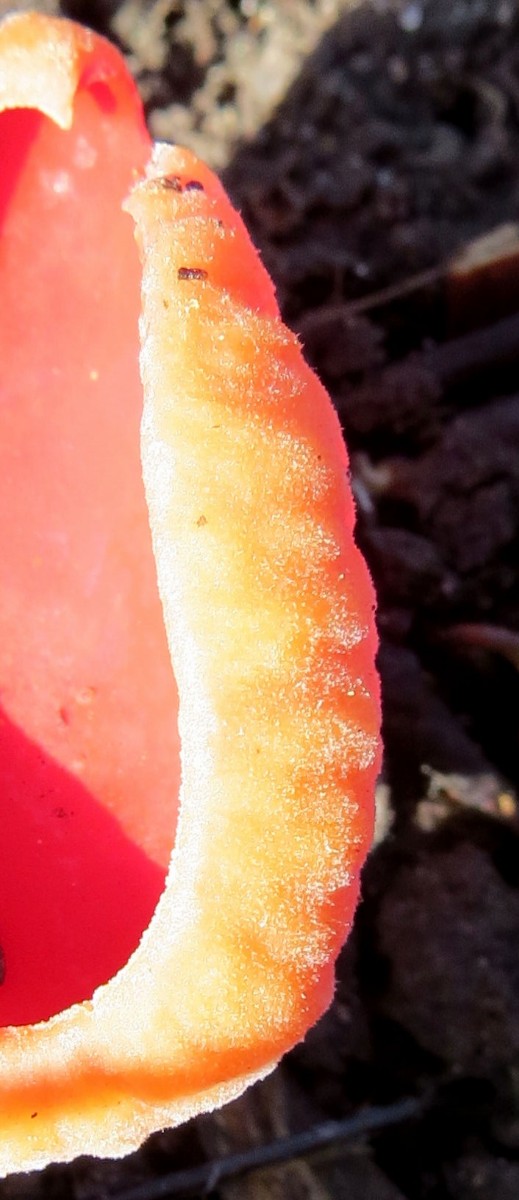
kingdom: Fungi
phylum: Ascomycota
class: Pezizomycetes
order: Pezizales
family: Sarcoscyphaceae
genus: Sarcoscypha
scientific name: Sarcoscypha
